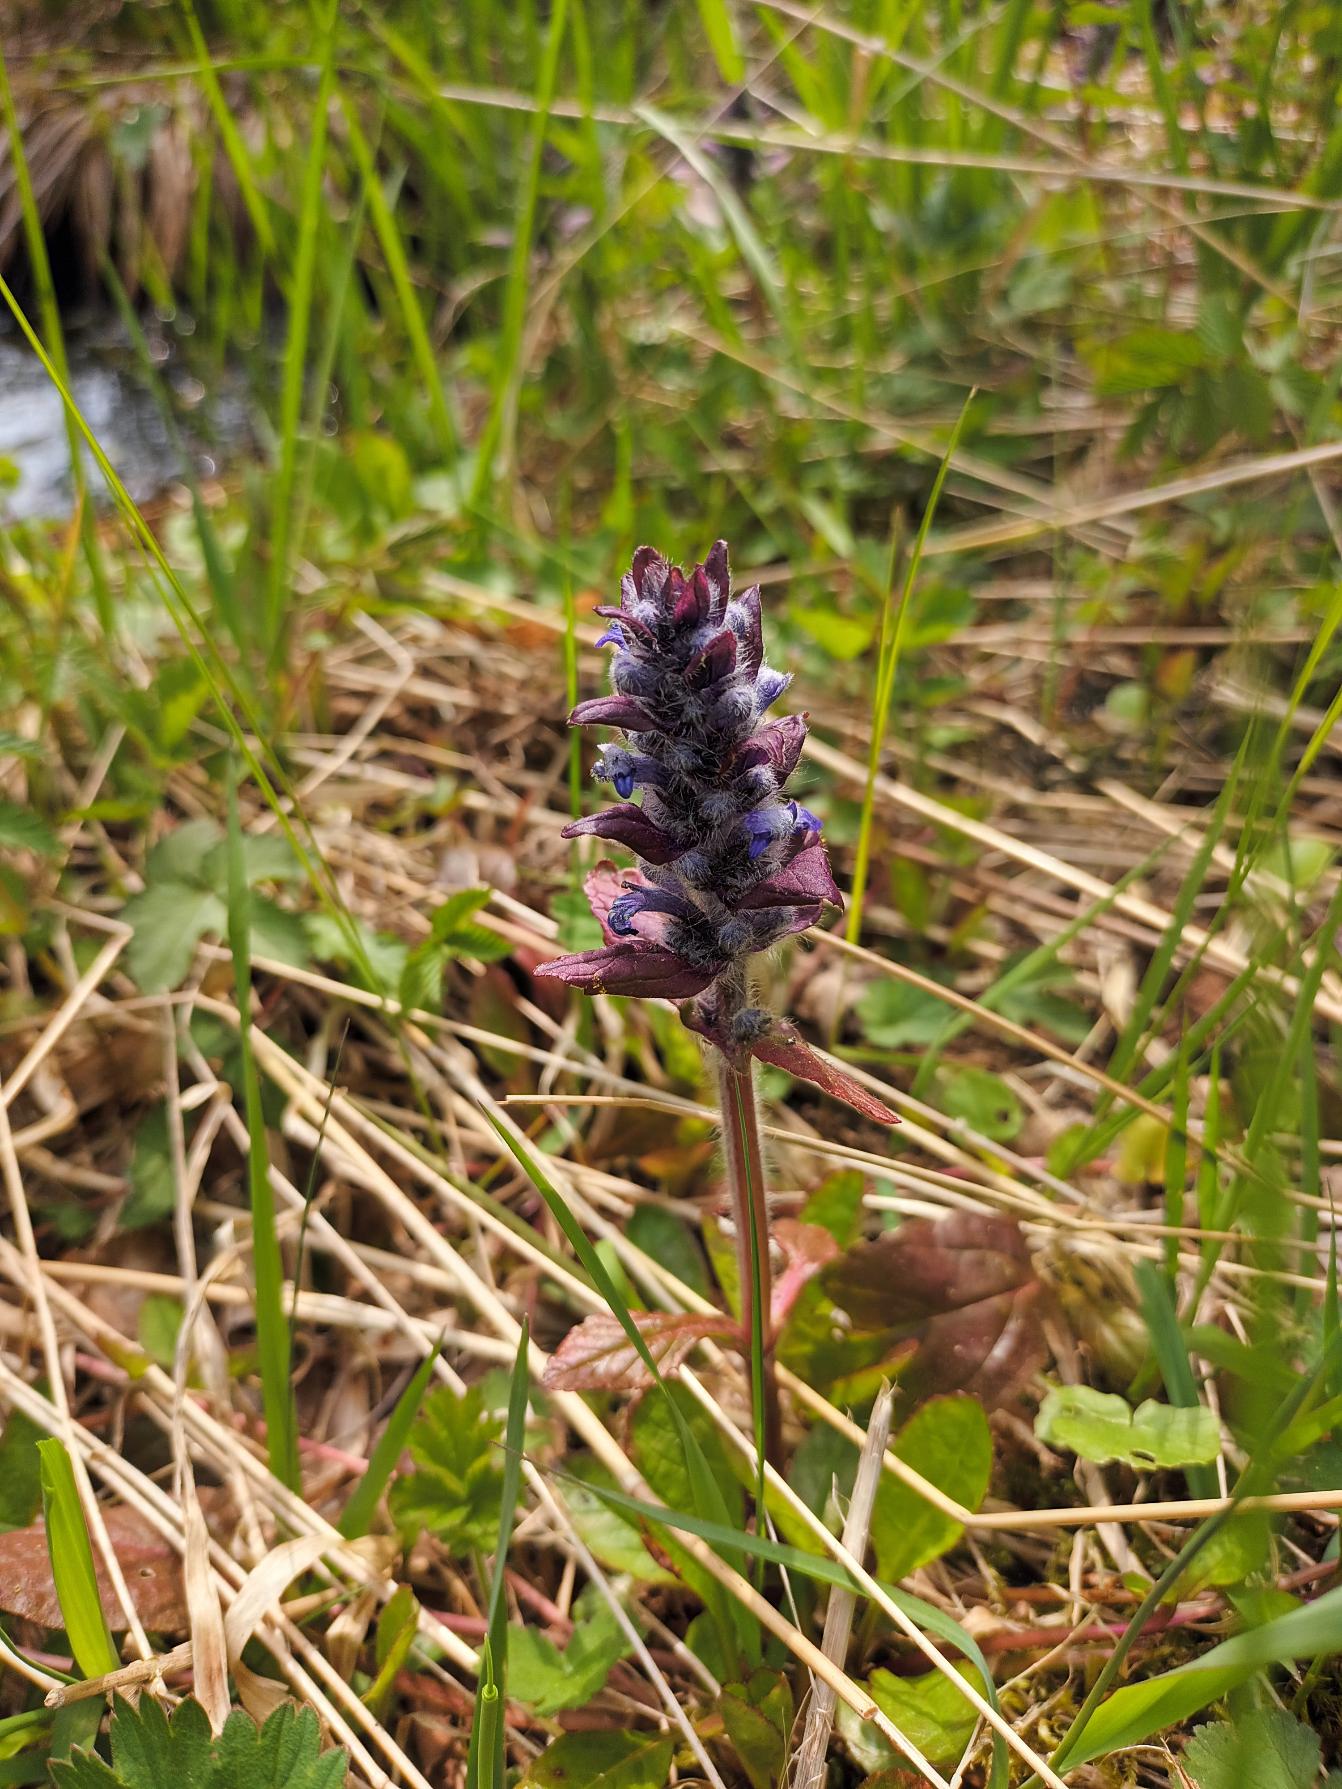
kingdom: Plantae
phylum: Tracheophyta
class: Magnoliopsida
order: Lamiales
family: Lamiaceae
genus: Ajuga
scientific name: Ajuga reptans
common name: Krybende læbeløs
